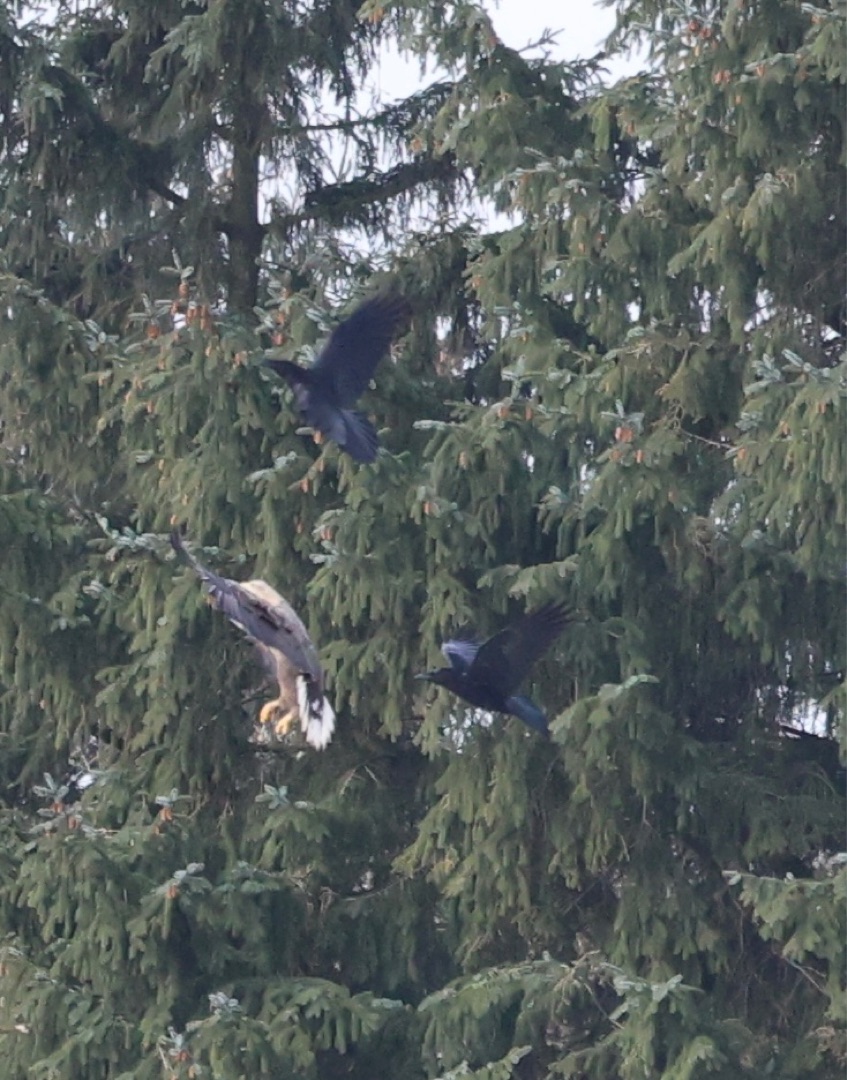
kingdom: Animalia
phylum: Chordata
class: Aves
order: Passeriformes
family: Corvidae
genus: Corvus
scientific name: Corvus corax
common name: Ravn
